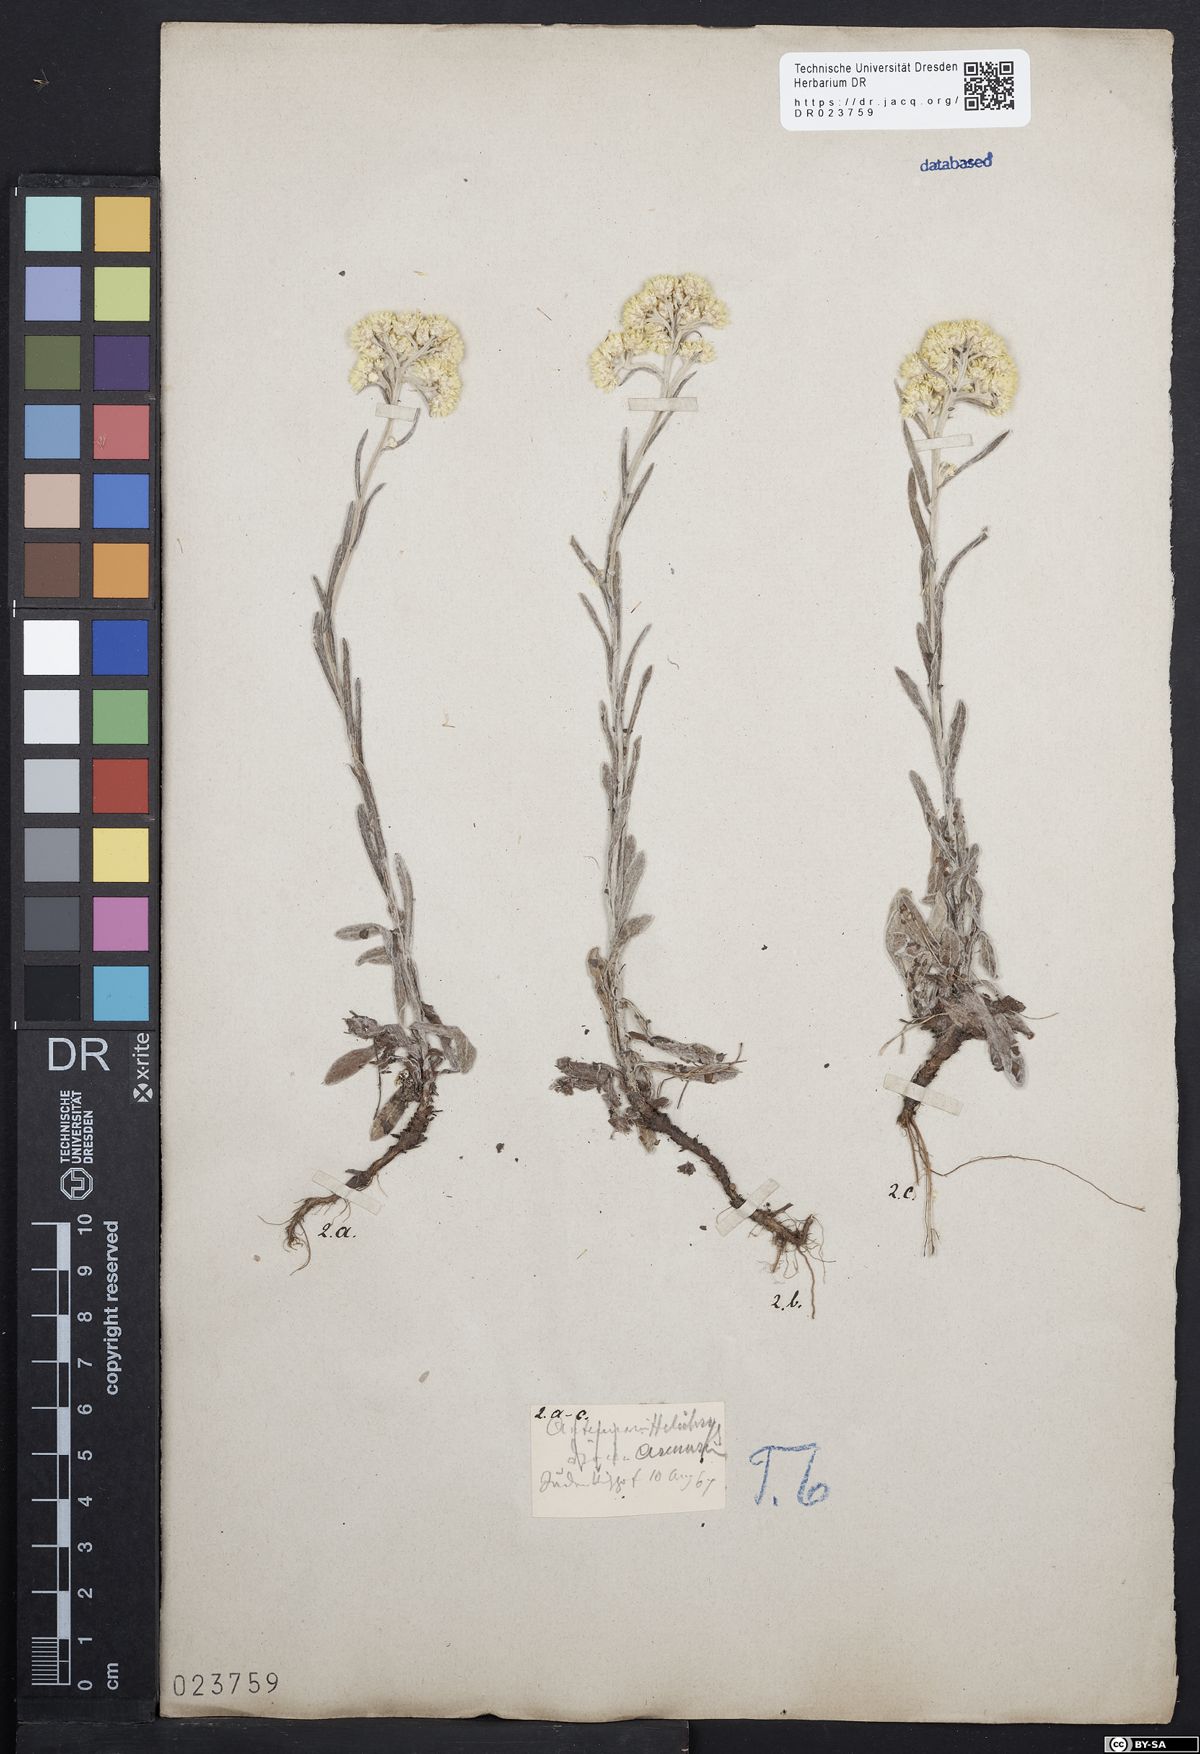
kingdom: Plantae
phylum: Tracheophyta
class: Magnoliopsida
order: Asterales
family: Asteraceae
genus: Helichrysum
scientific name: Helichrysum arenarium
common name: Strawflower
